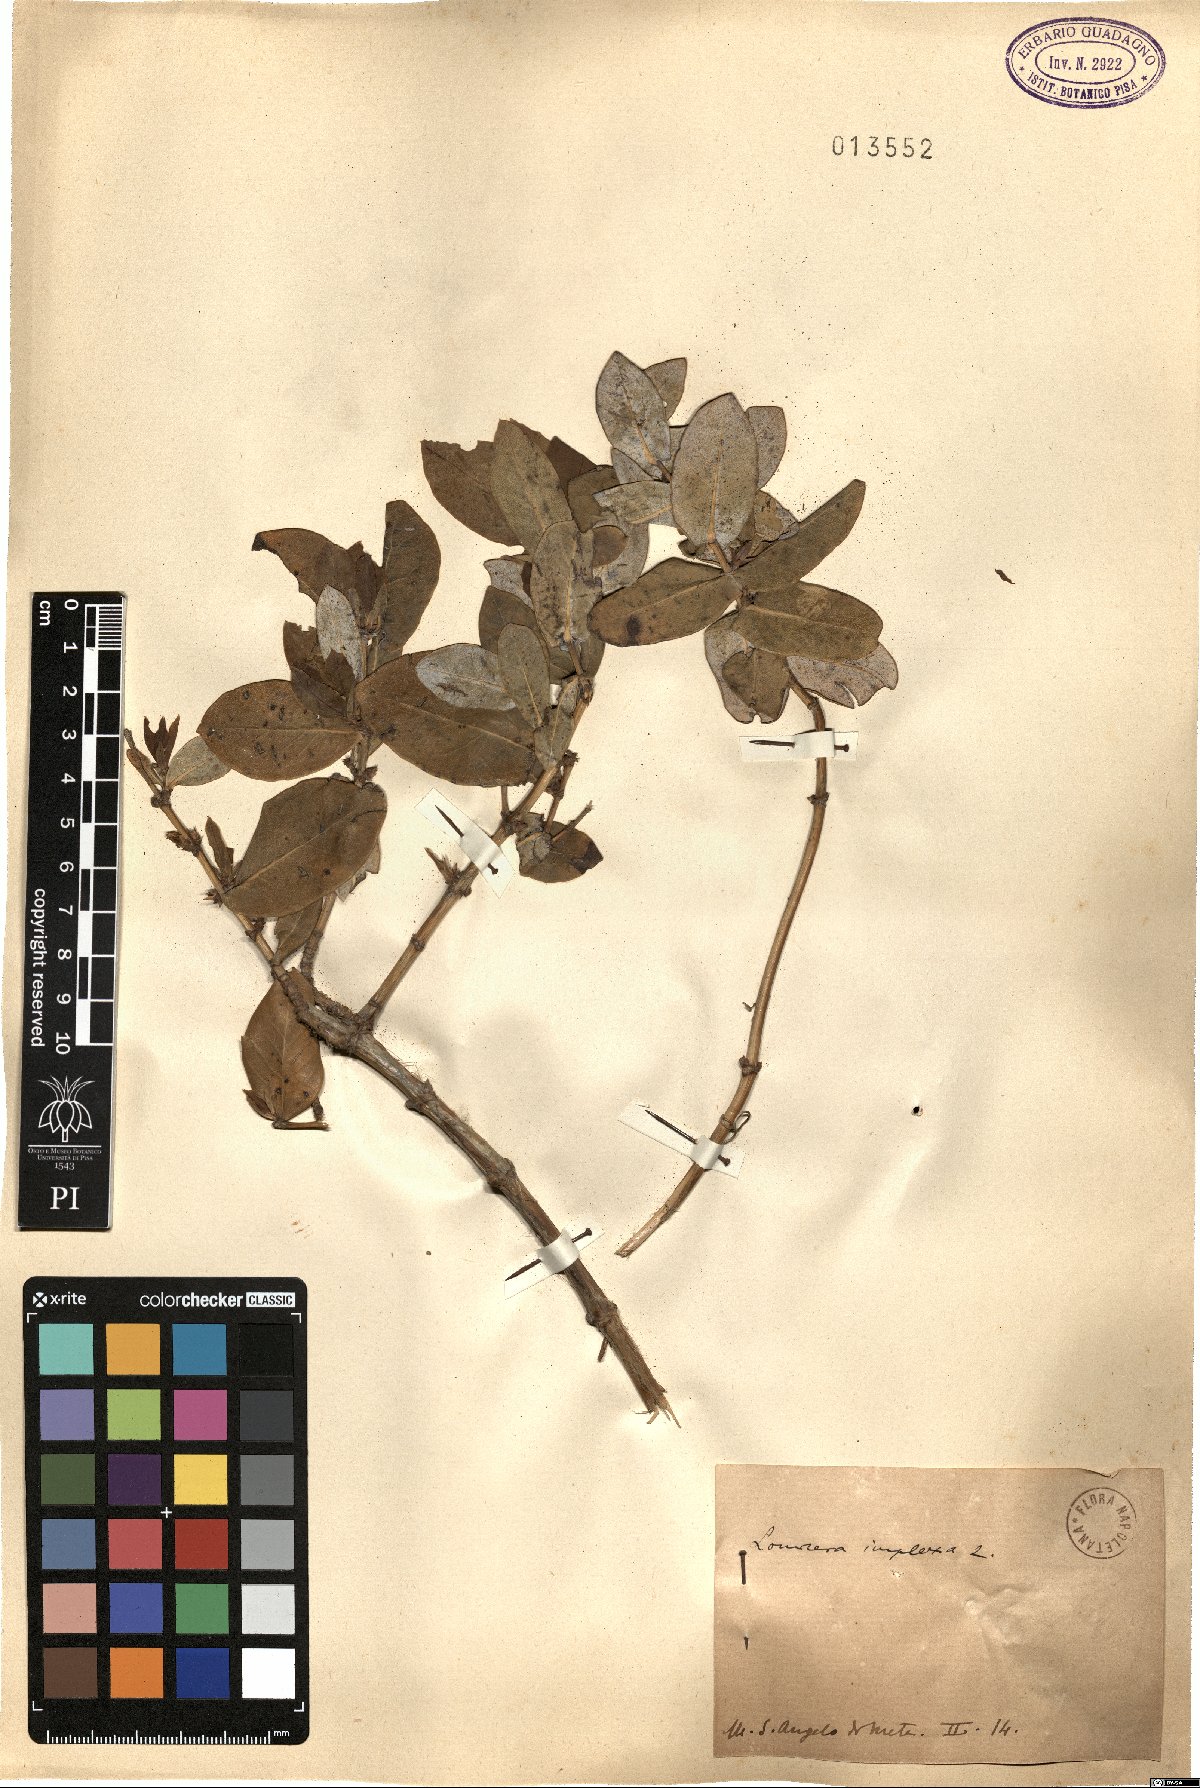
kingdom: Plantae
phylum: Tracheophyta
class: Magnoliopsida
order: Dipsacales
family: Caprifoliaceae
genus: Lonicera
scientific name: Lonicera implexa
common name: Minorca honeysuckle
